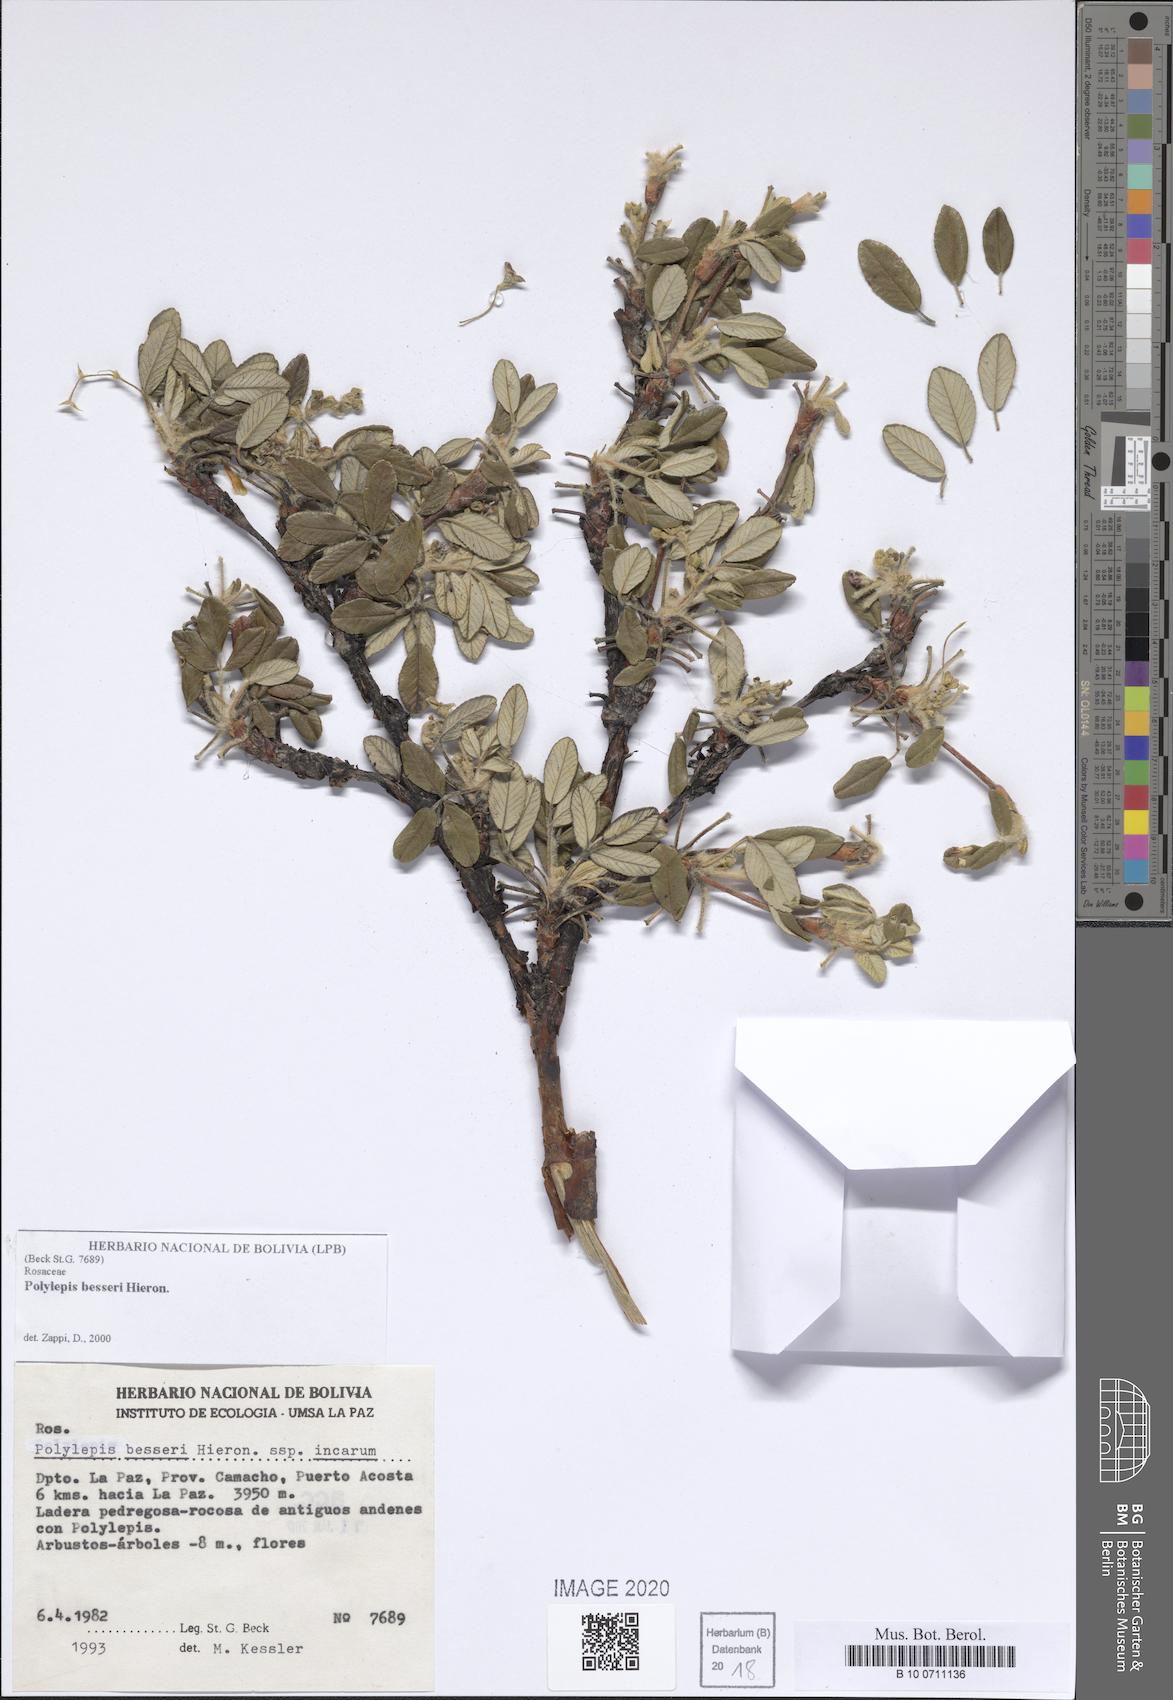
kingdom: Plantae
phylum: Tracheophyta
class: Magnoliopsida
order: Rosales
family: Rosaceae
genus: Polylepis
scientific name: Polylepis besseri
